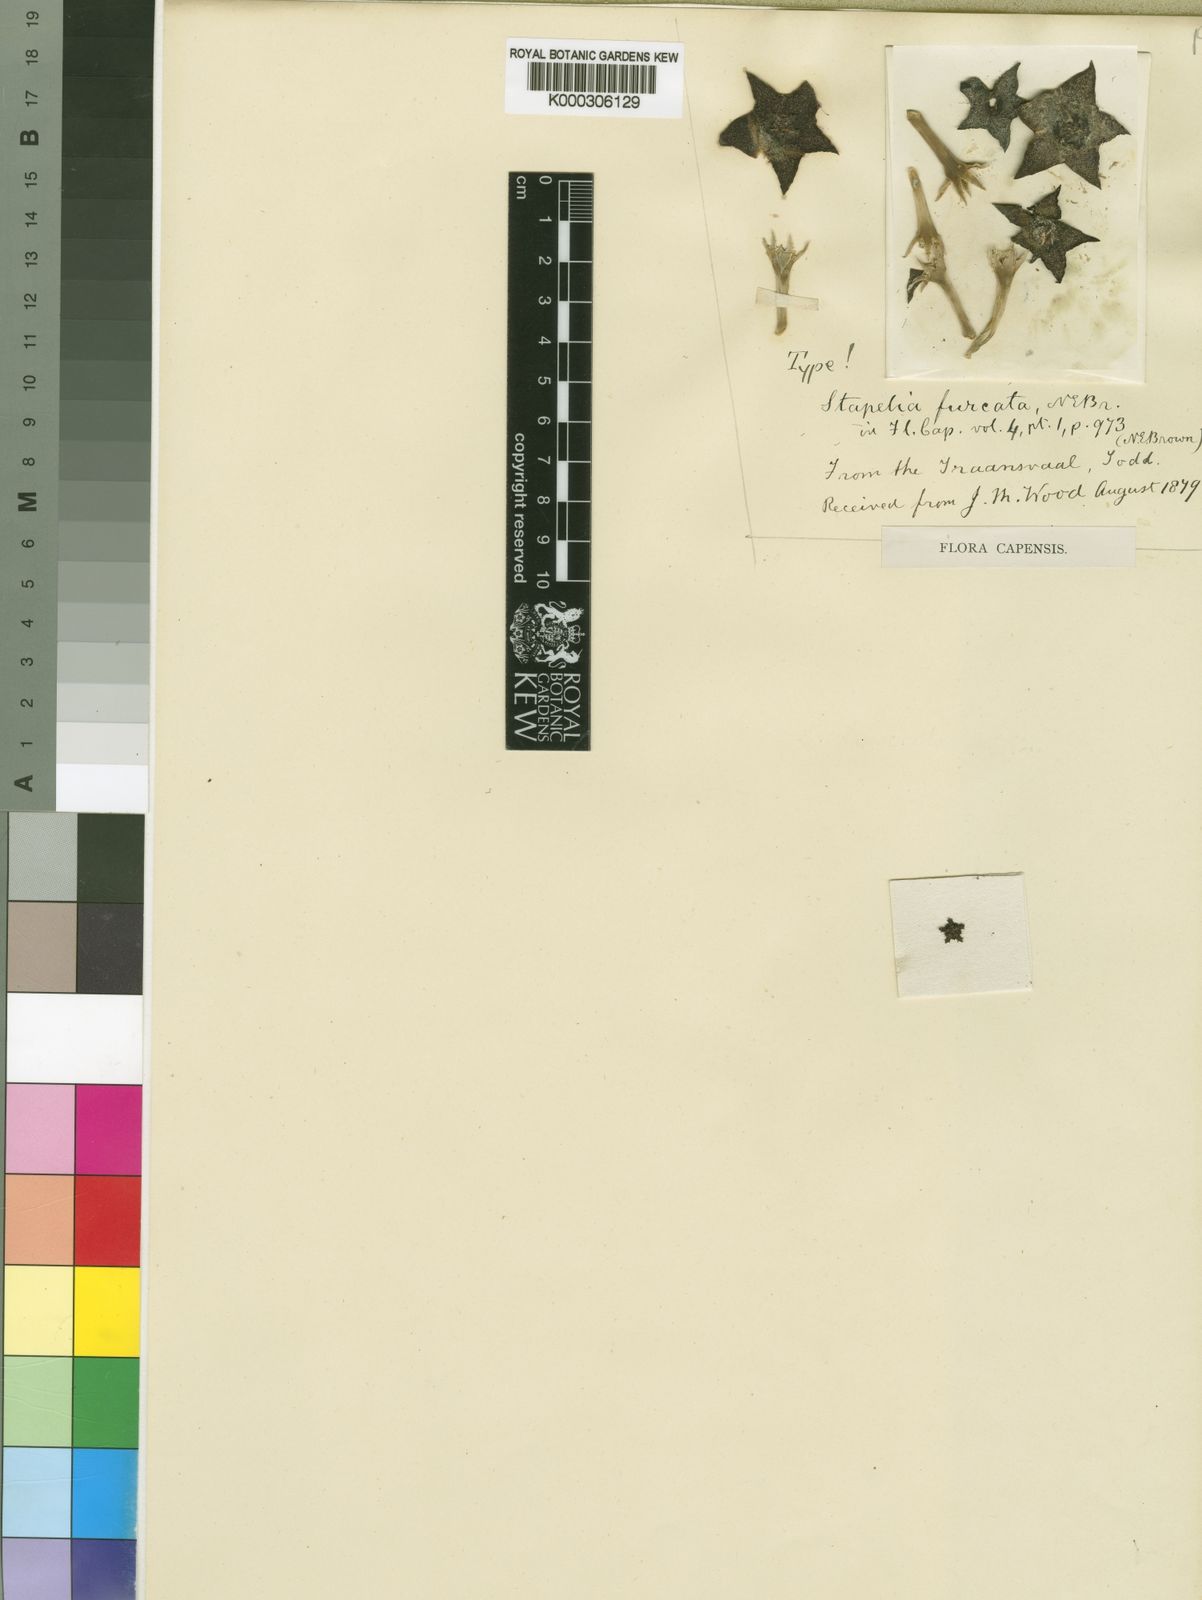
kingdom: Plantae
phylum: Tracheophyta
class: Magnoliopsida
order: Gentianales
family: Apocynaceae
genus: Ceropegia
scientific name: Ceropegia melanantha
